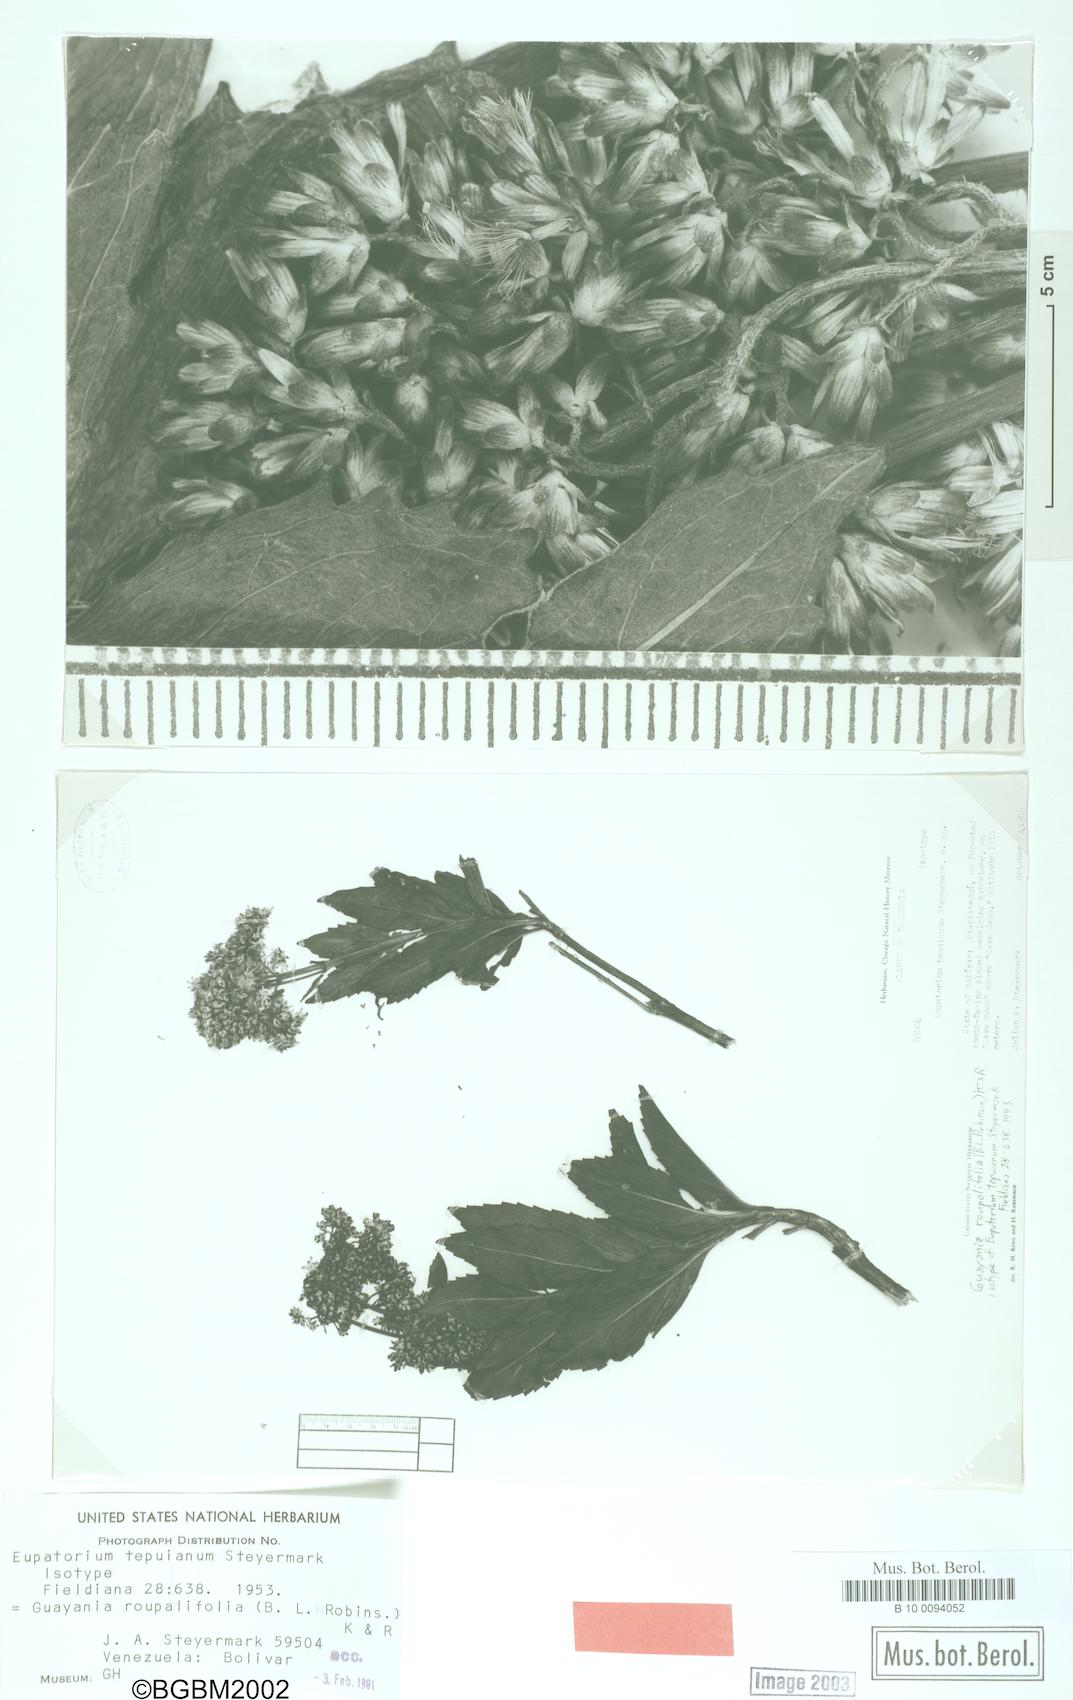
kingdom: Plantae
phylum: Tracheophyta
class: Magnoliopsida
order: Asterales
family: Asteraceae
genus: Guayania
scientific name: Guayania roupalifolia
